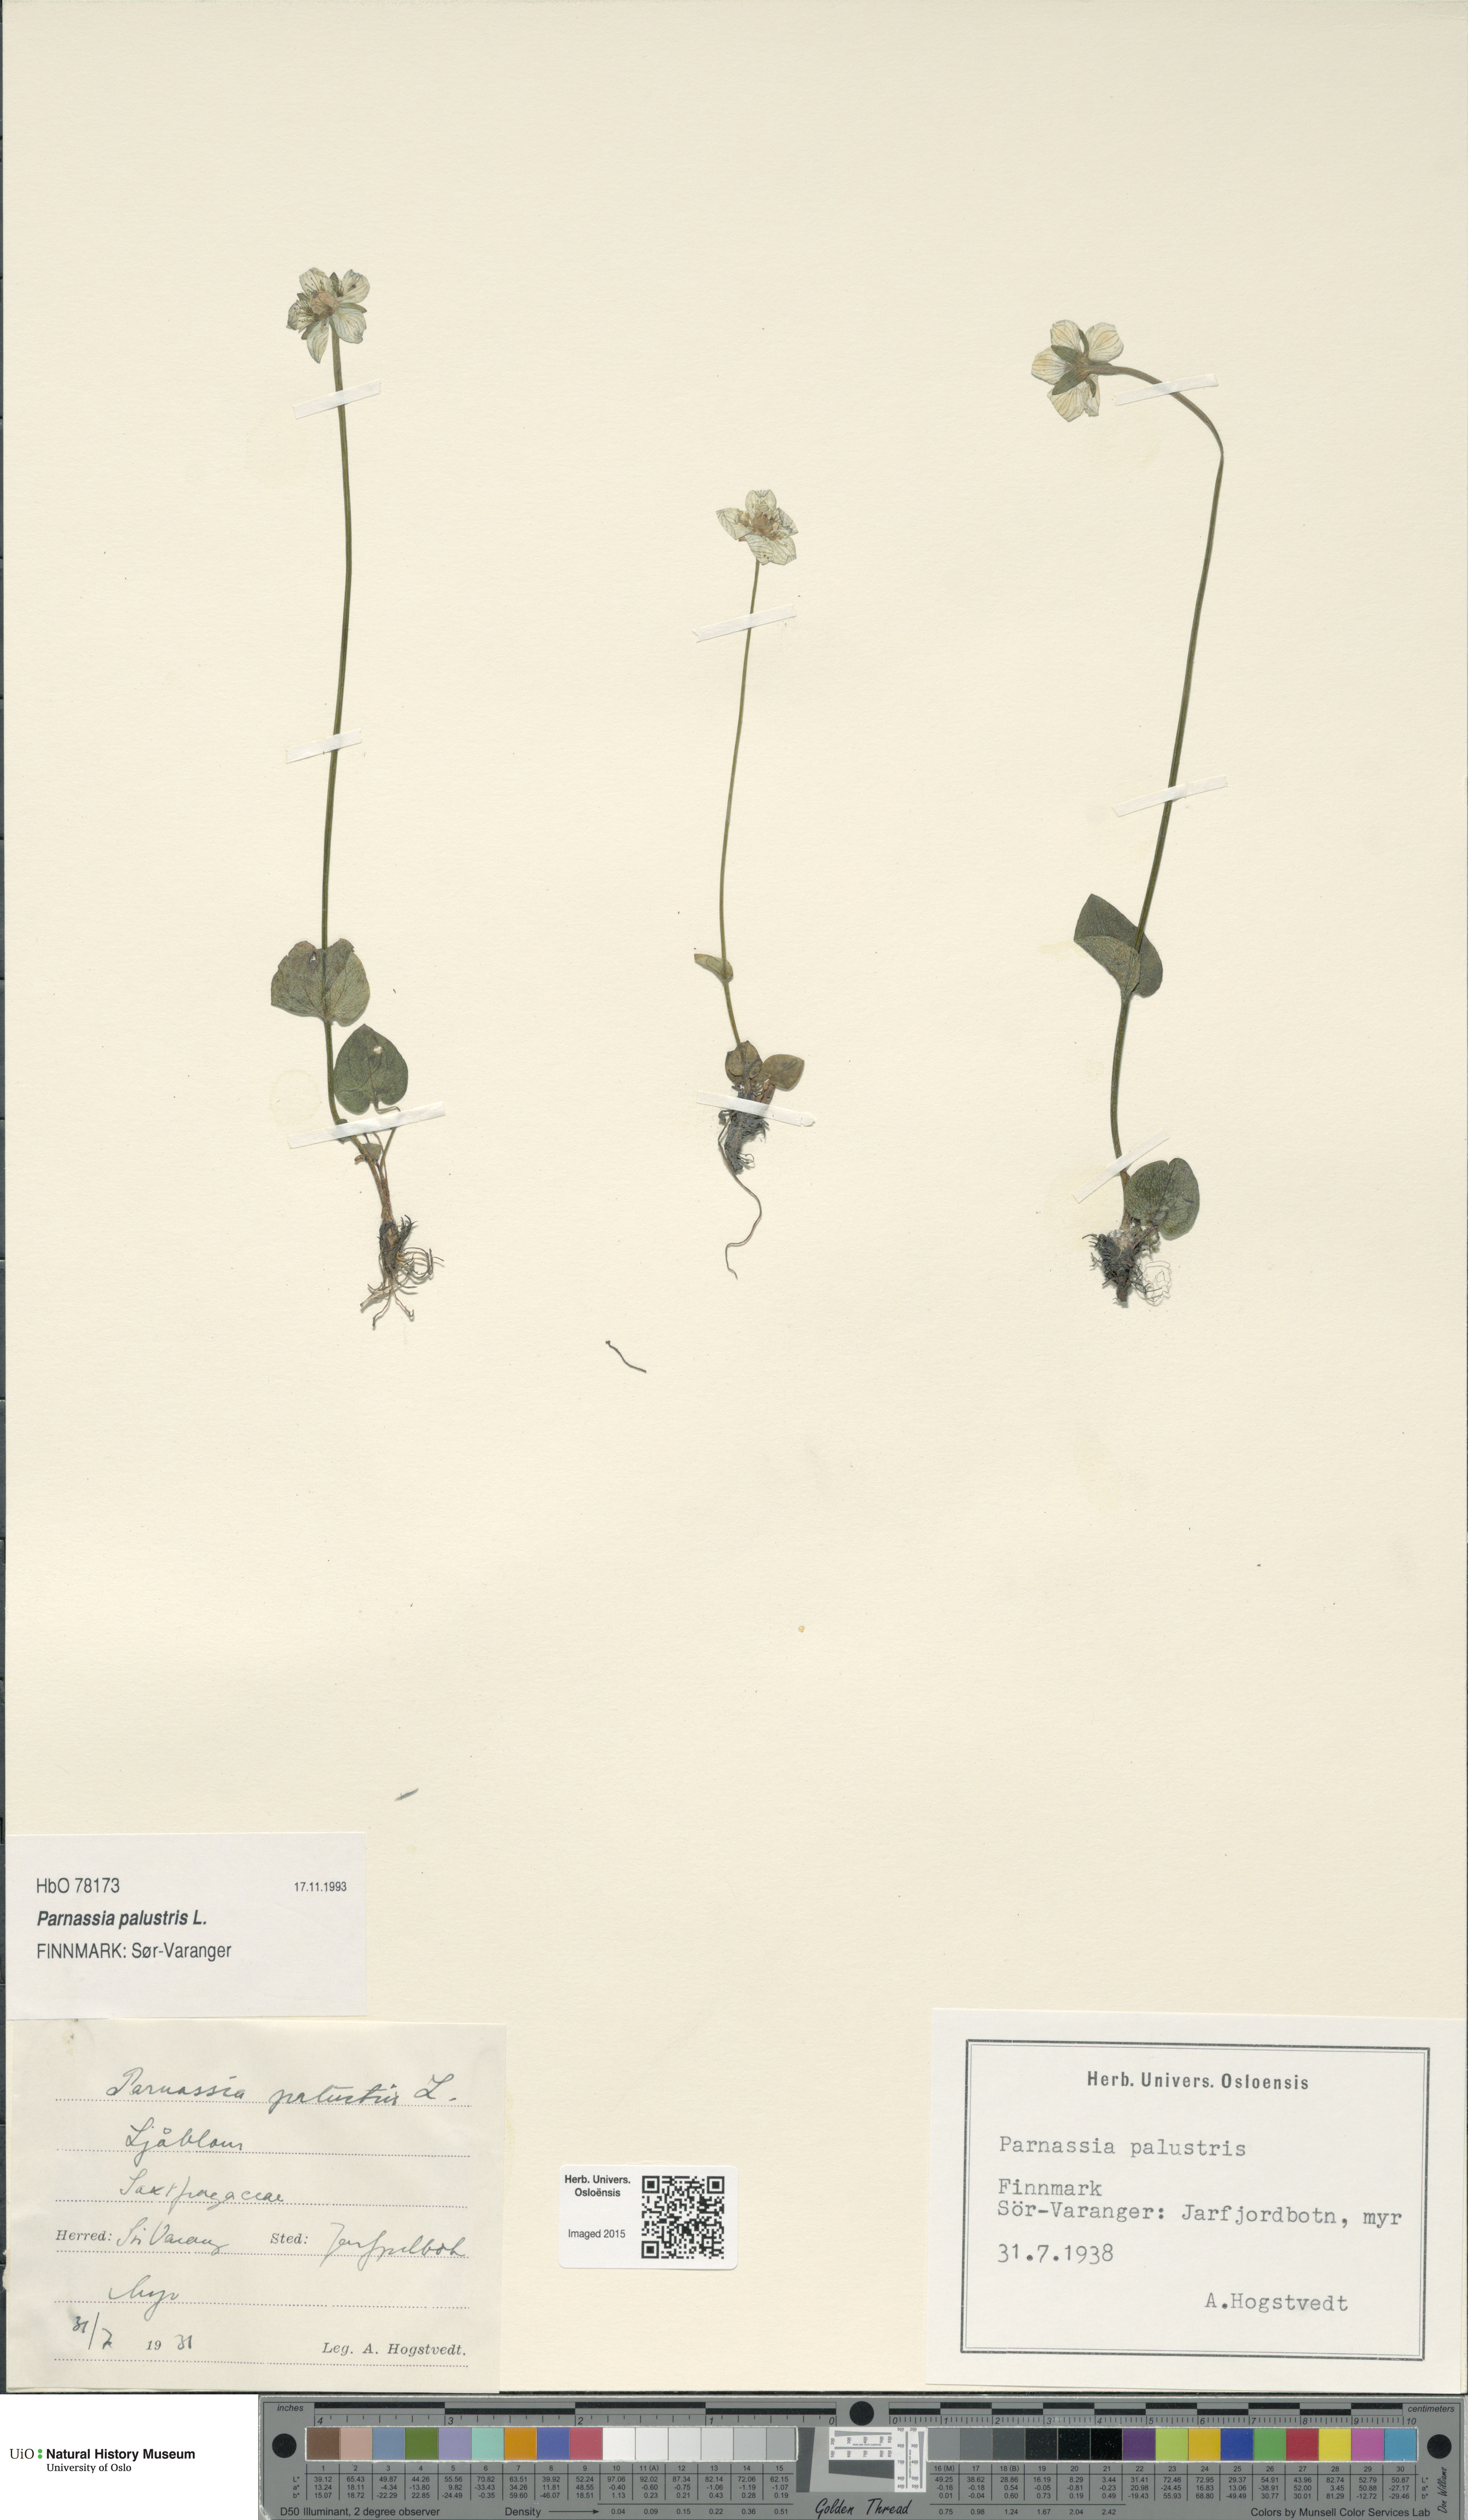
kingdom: Plantae
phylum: Tracheophyta
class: Magnoliopsida
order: Celastrales
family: Parnassiaceae
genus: Parnassia
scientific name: Parnassia palustris
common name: Grass-of-parnassus
